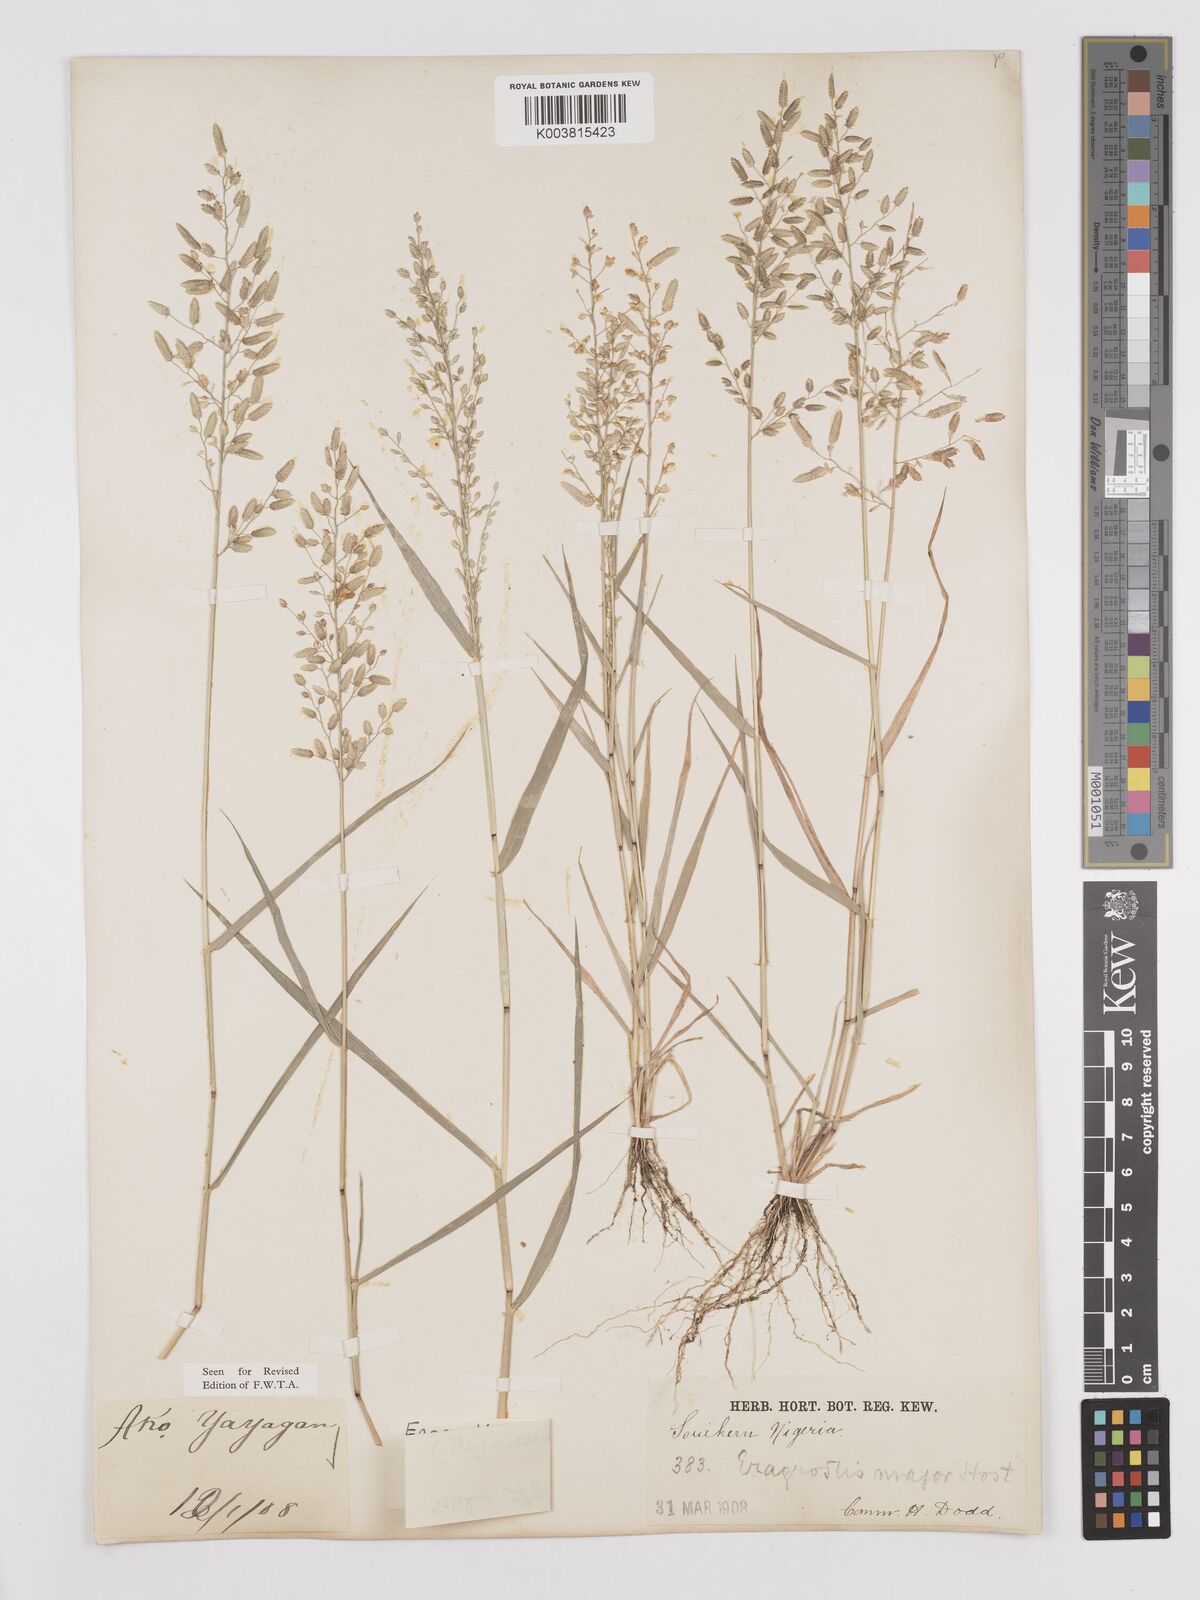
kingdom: Plantae
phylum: Tracheophyta
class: Liliopsida
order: Poales
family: Poaceae
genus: Eragrostis
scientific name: Eragrostis cilianensis
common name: Stinkgrass
